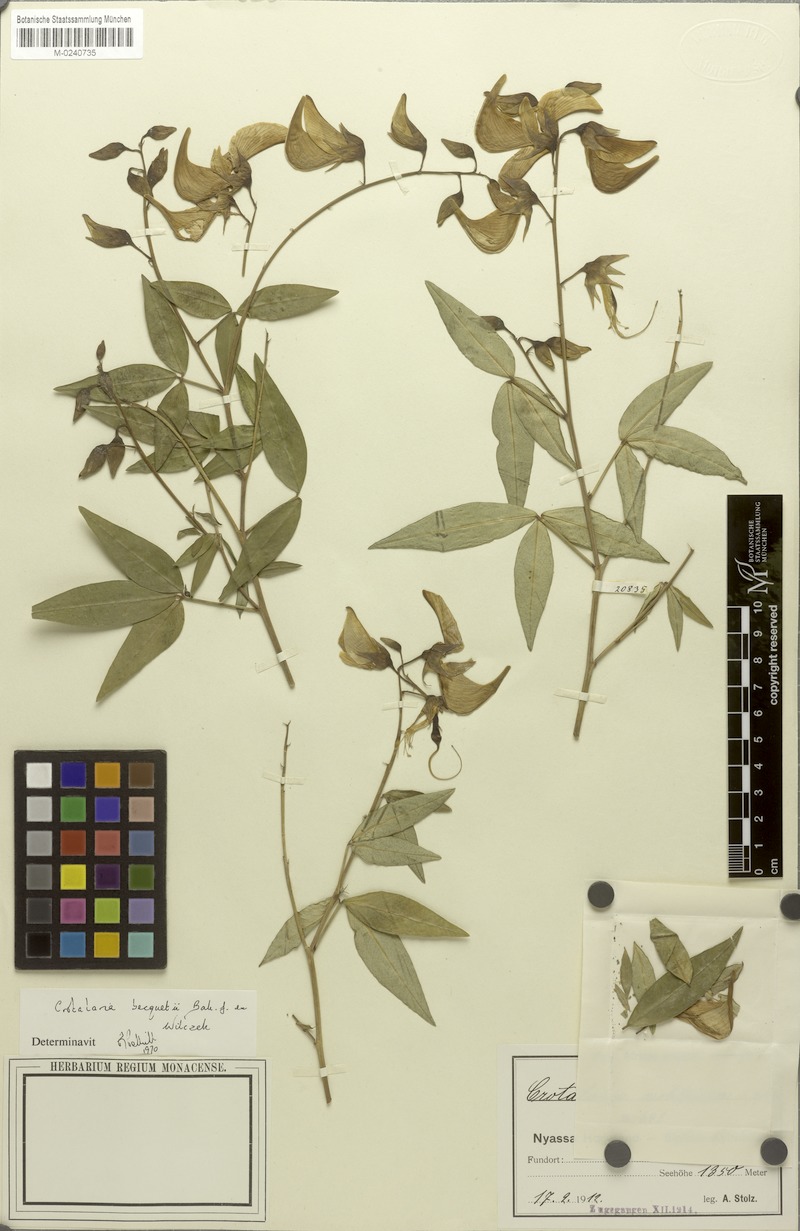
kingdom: Plantae
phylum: Tracheophyta
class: Magnoliopsida
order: Fabales
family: Fabaceae
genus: Crotalaria
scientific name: Crotalaria becquetii ex
